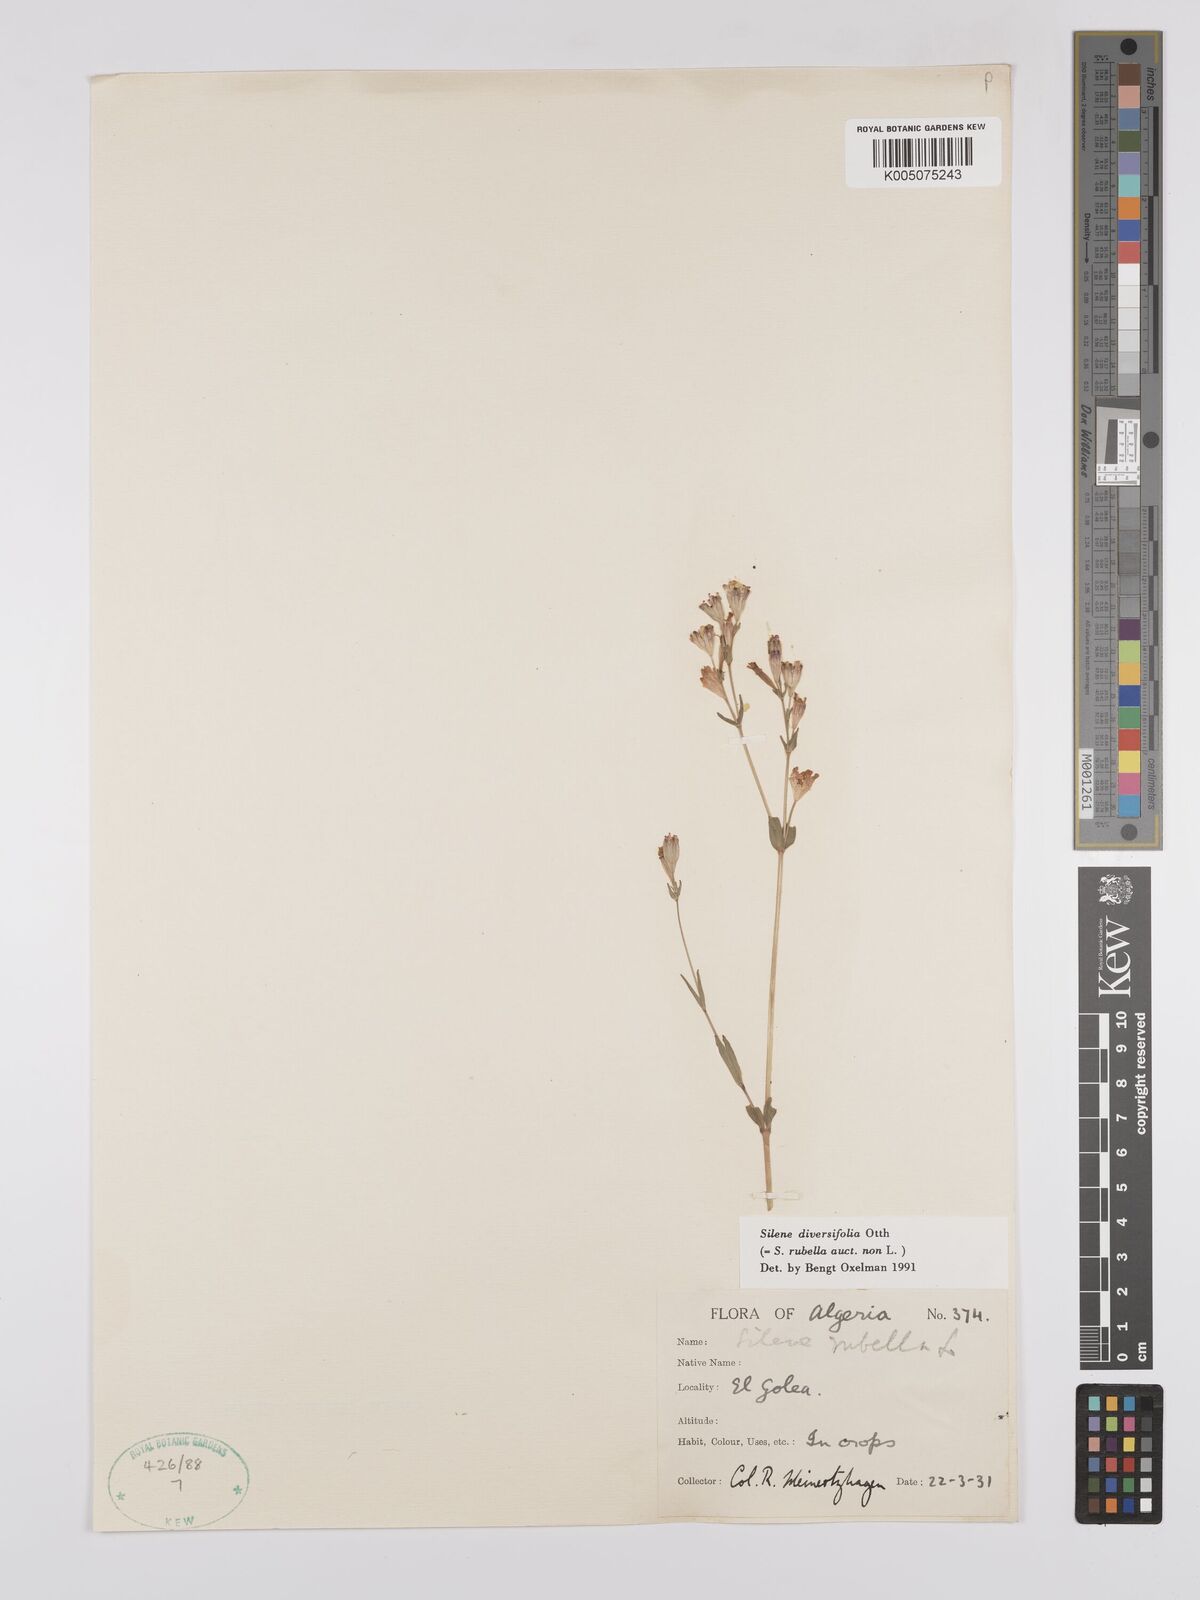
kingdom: Plantae
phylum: Tracheophyta
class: Magnoliopsida
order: Caryophyllales
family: Caryophyllaceae
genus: Silene
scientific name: Silene rubella
